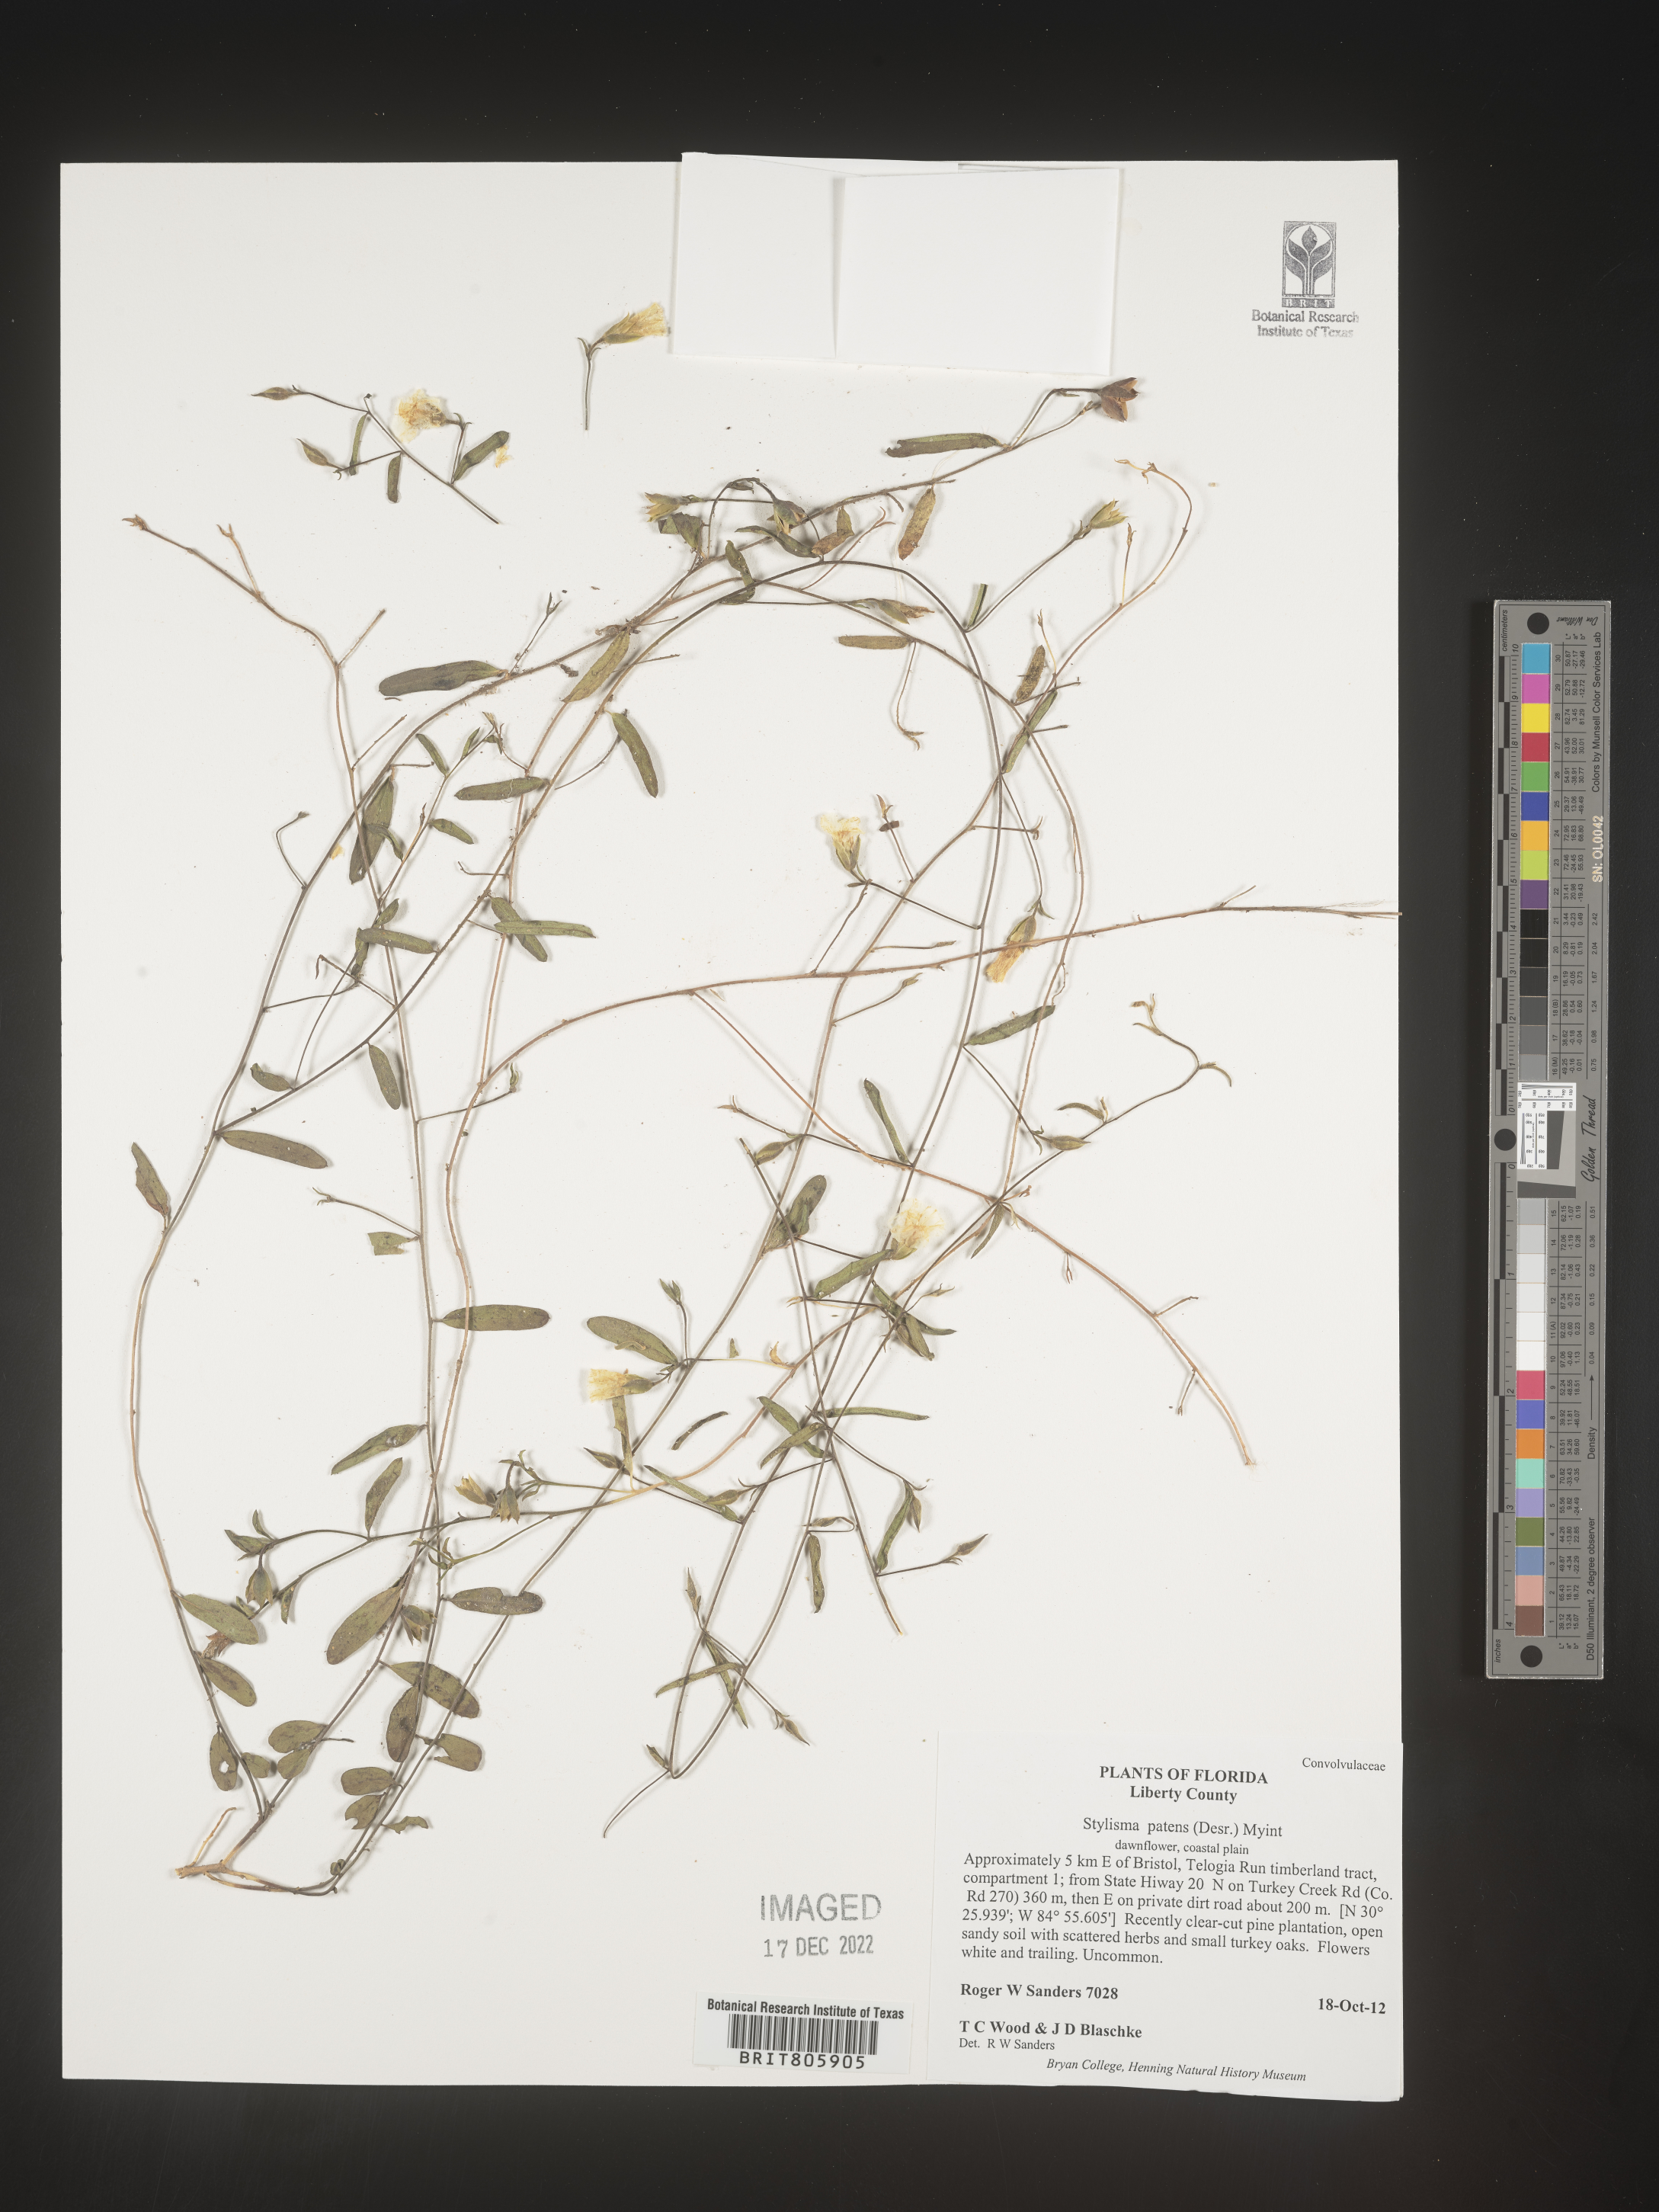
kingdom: Plantae
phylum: Tracheophyta
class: Magnoliopsida
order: Solanales
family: Convolvulaceae
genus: Stylisma
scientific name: Stylisma
